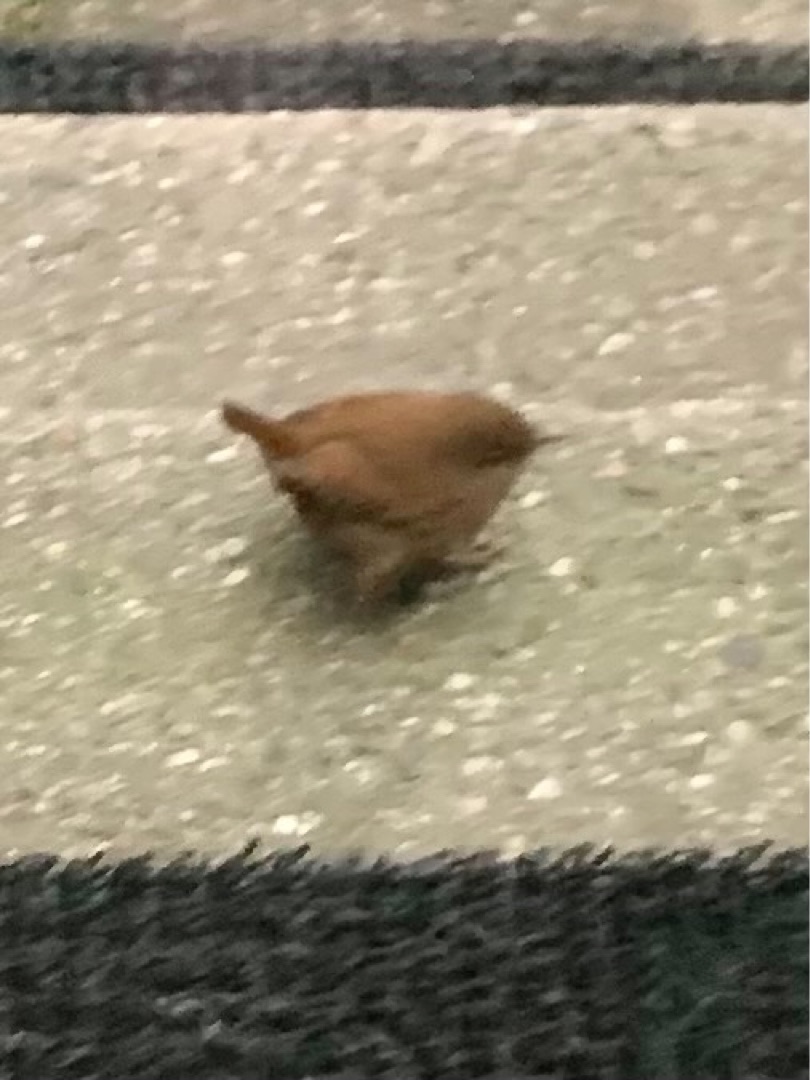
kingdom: Animalia
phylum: Chordata
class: Aves
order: Passeriformes
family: Troglodytidae
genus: Troglodytes
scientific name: Troglodytes troglodytes
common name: Gærdesmutte
